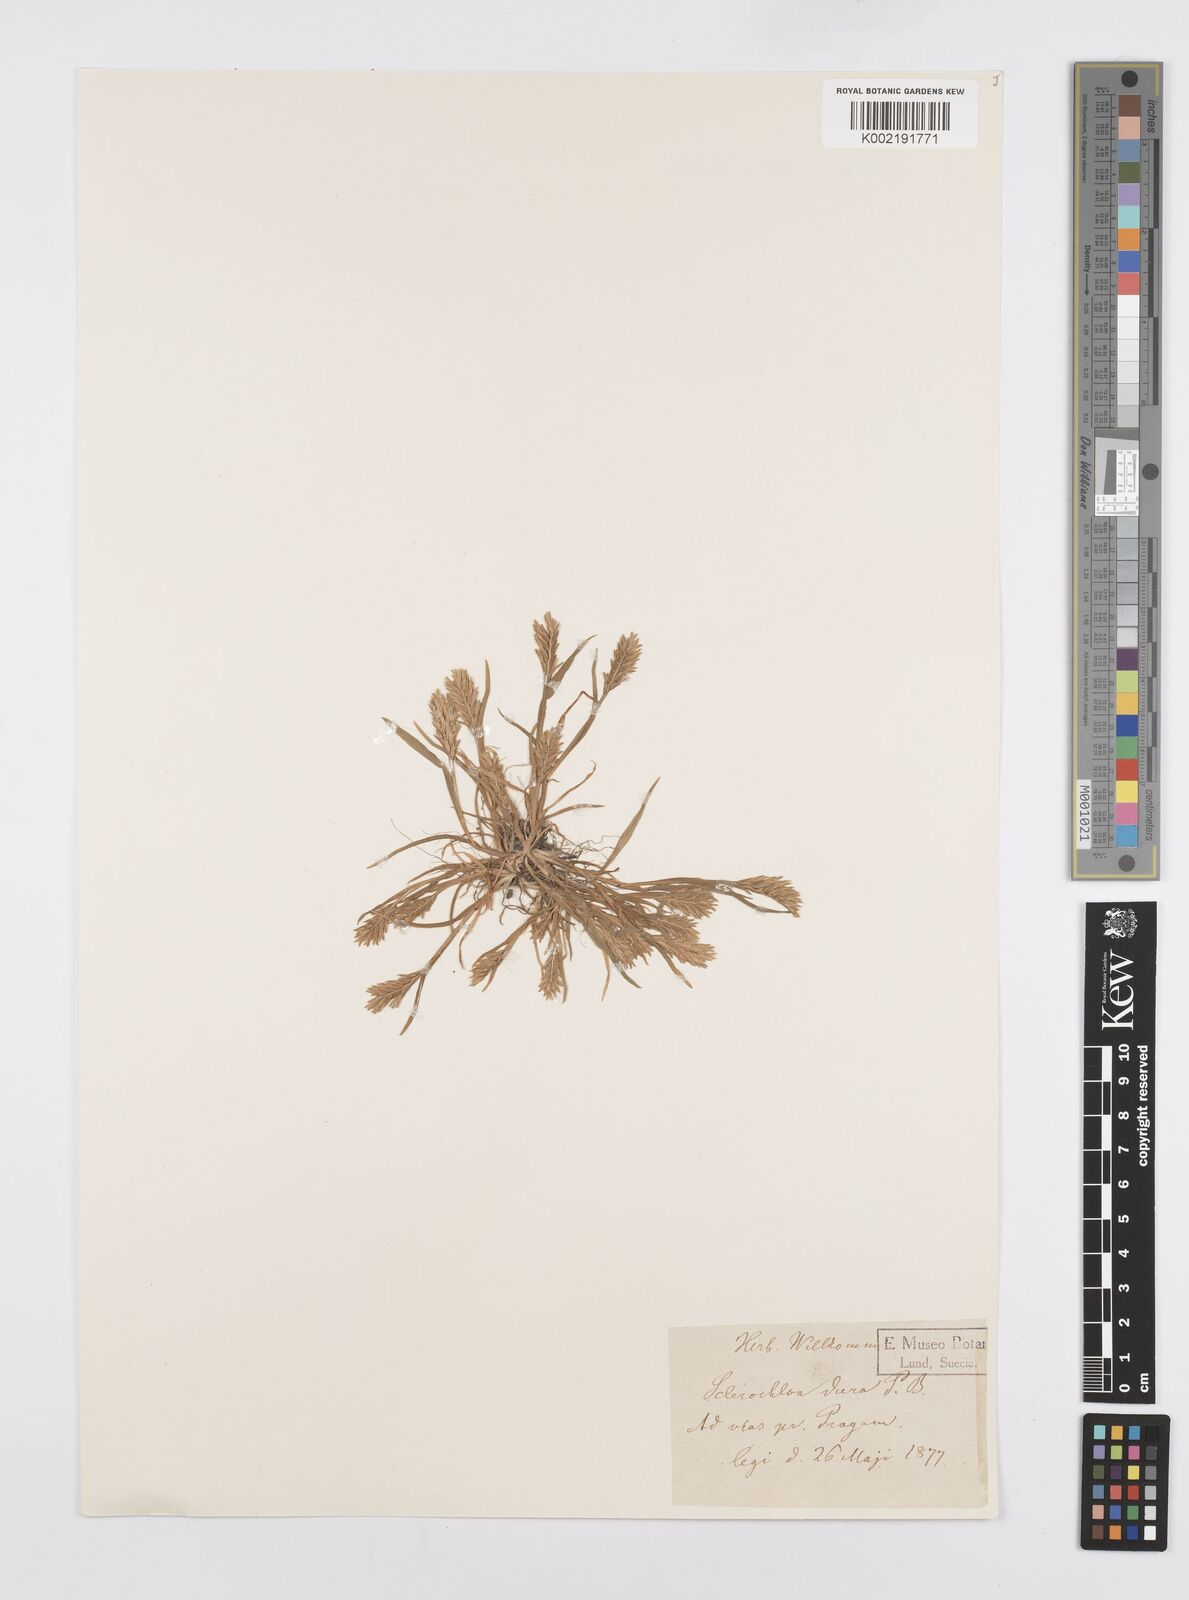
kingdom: Plantae
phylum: Tracheophyta
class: Liliopsida
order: Poales
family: Poaceae
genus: Sclerochloa
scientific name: Sclerochloa dura
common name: Common hardgrass
